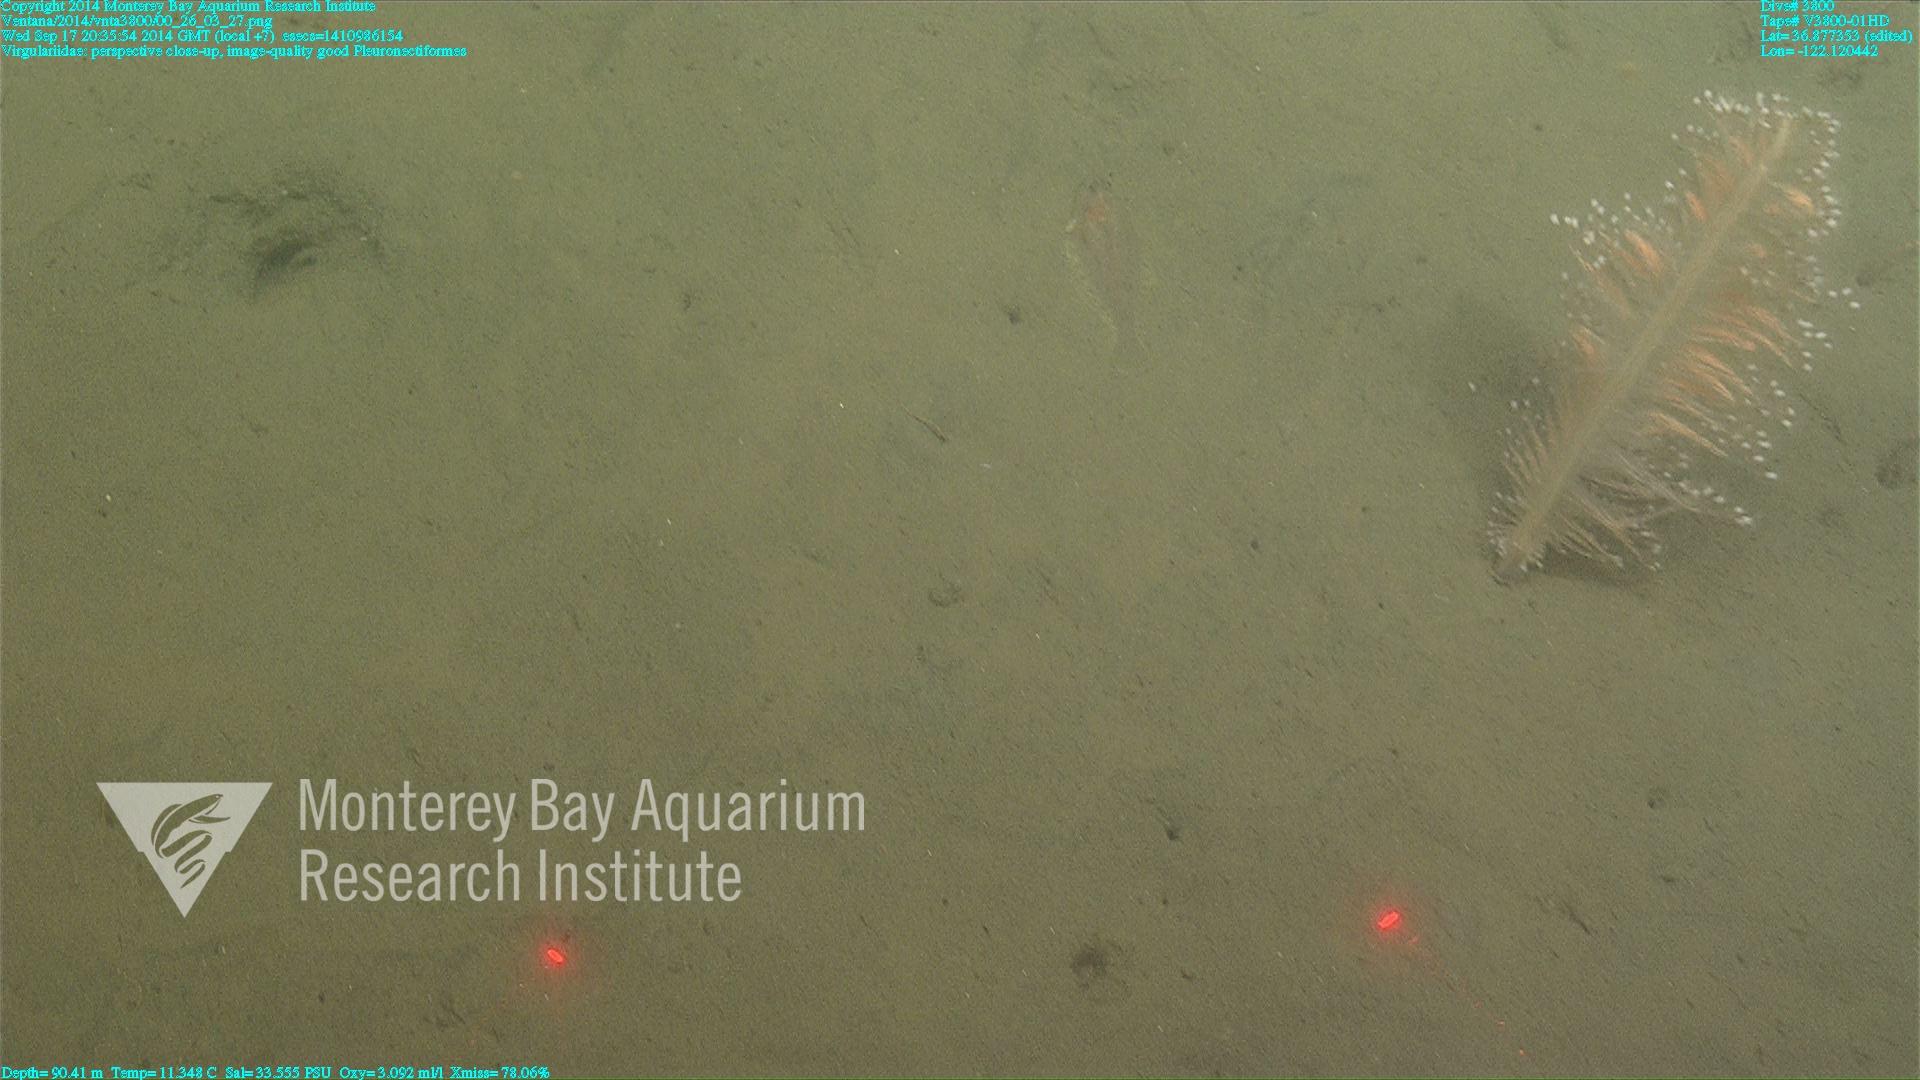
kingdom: Animalia
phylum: Cnidaria
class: Anthozoa
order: Scleralcyonacea
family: Virgulariidae
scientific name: Virgulariidae
